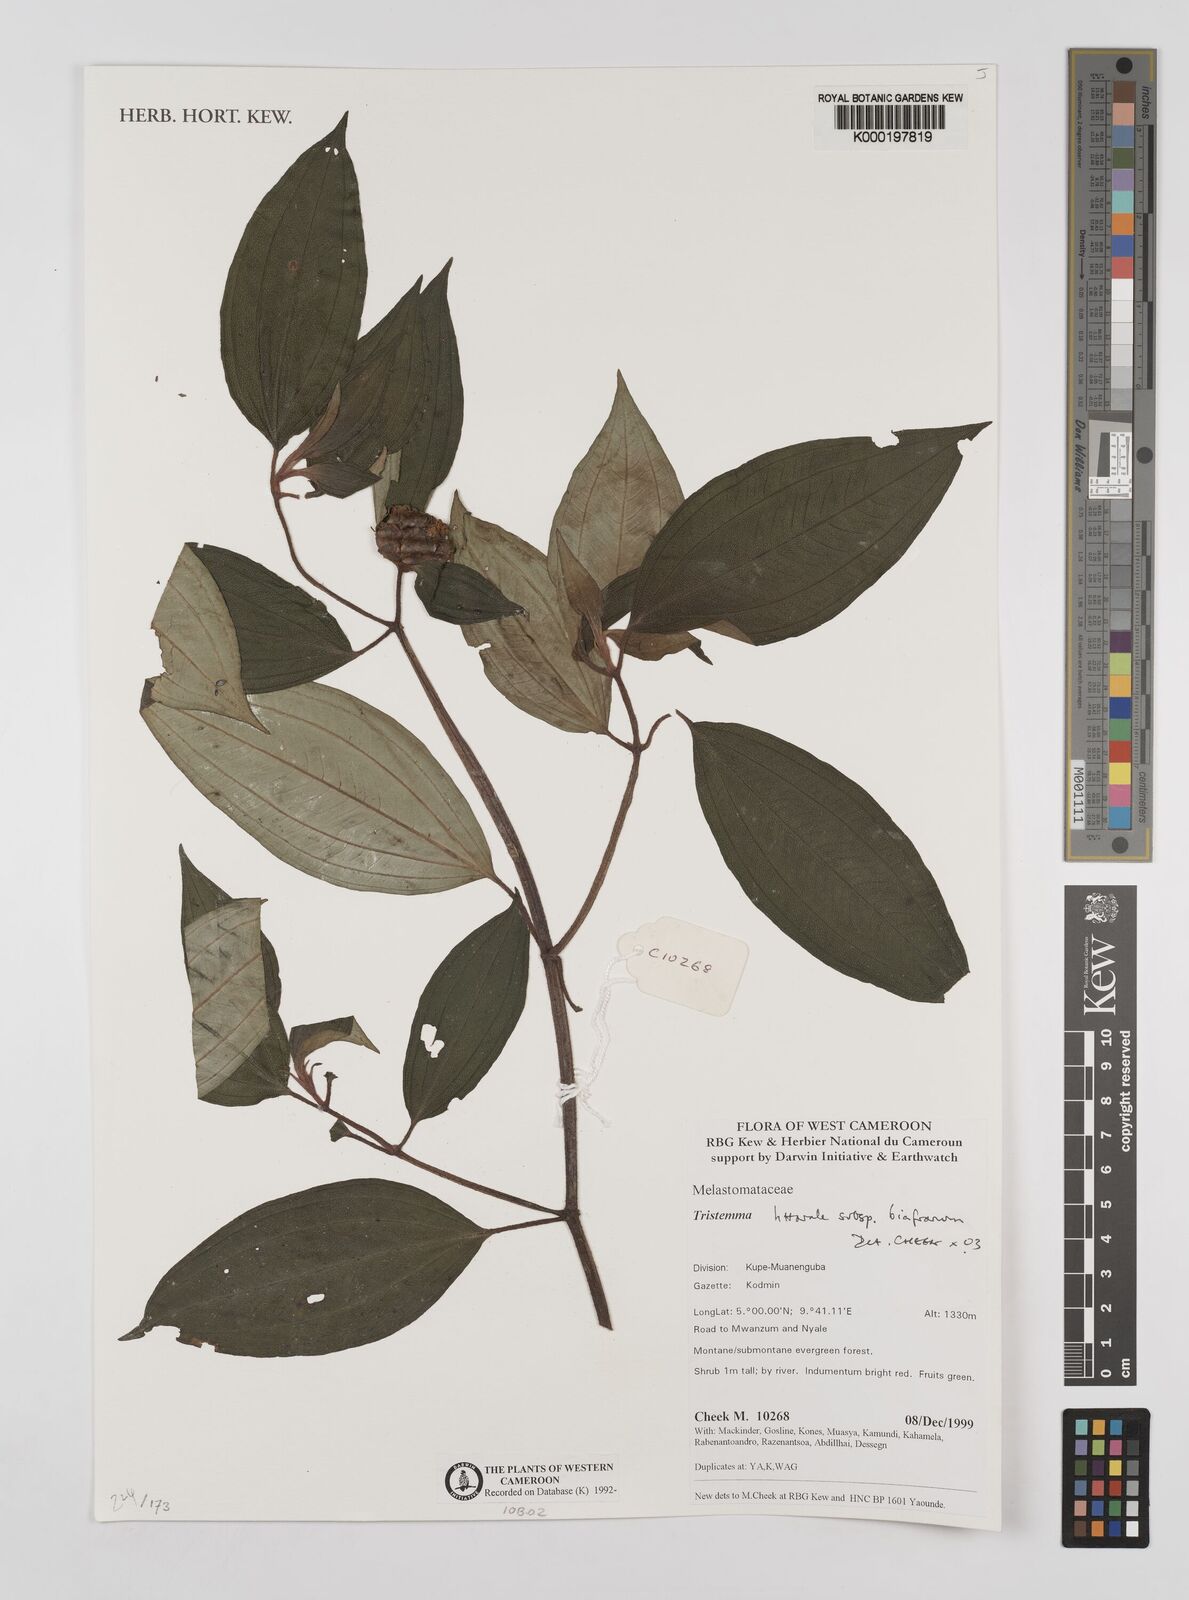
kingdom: Plantae
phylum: Tracheophyta
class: Magnoliopsida
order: Myrtales
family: Melastomataceae
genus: Tristemma
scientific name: Tristemma littorale
